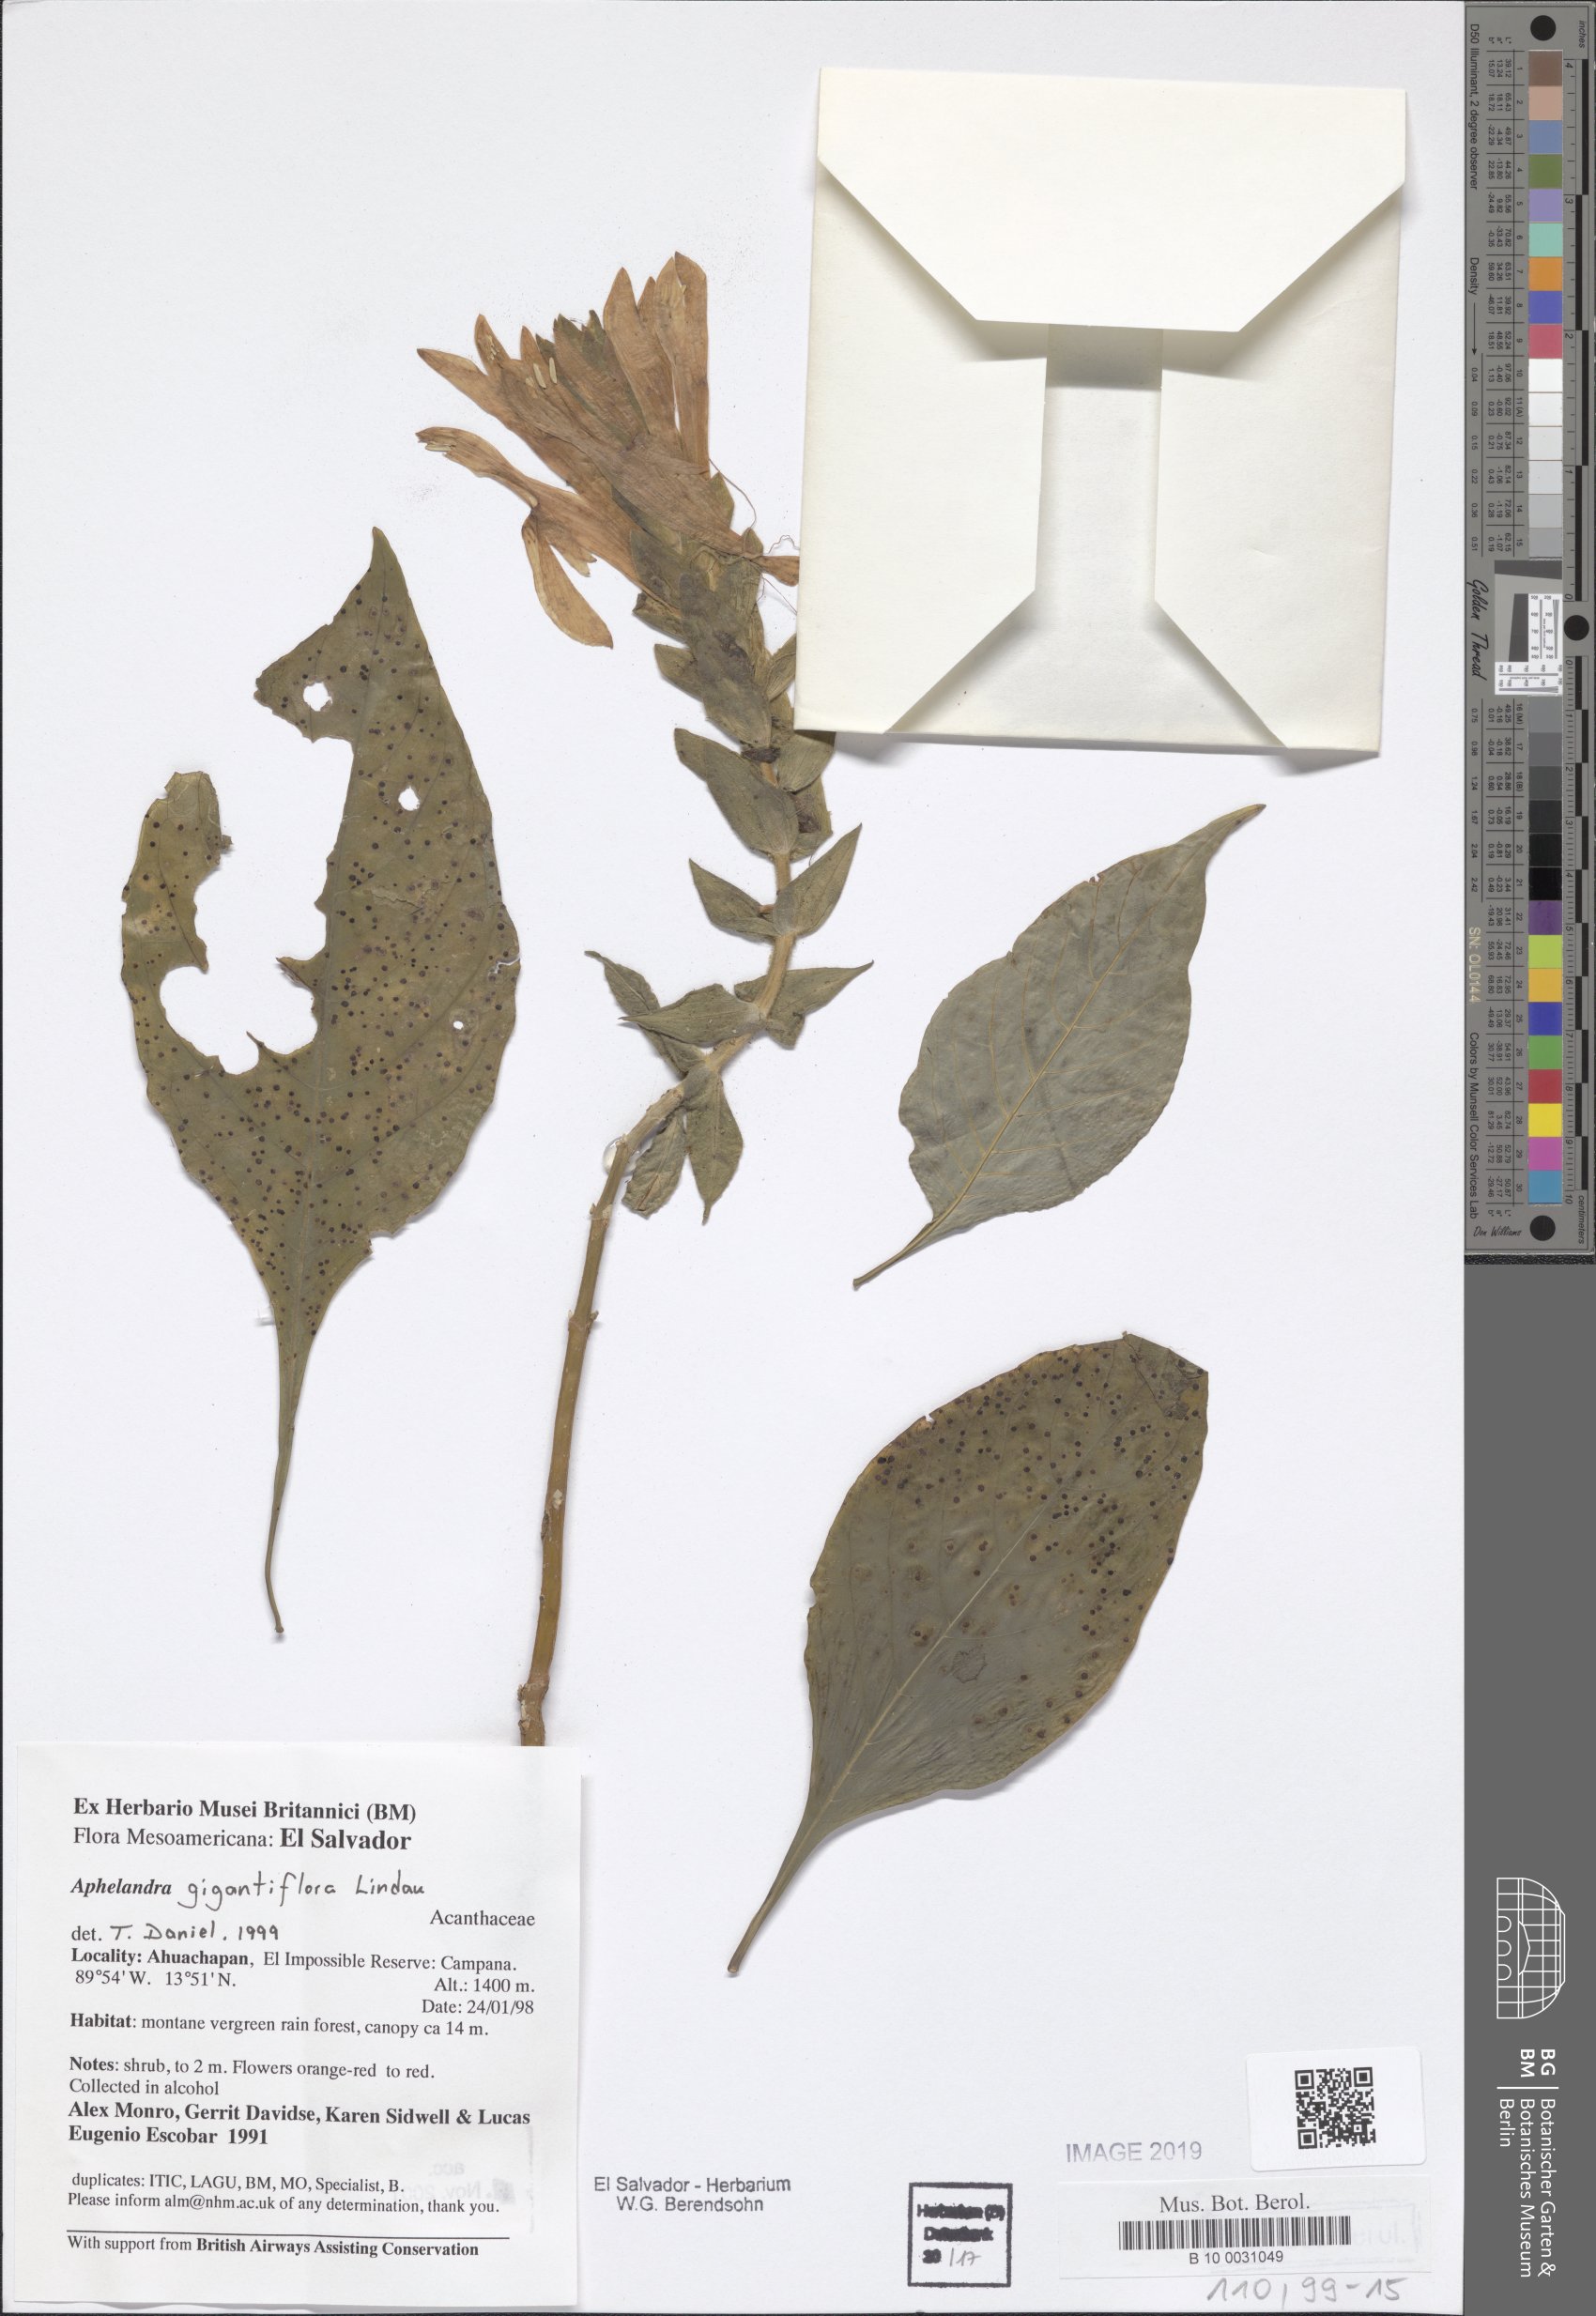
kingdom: Plantae
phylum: Tracheophyta
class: Magnoliopsida
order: Lamiales
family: Acanthaceae
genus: Aphelandra
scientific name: Aphelandra gigantiflora
